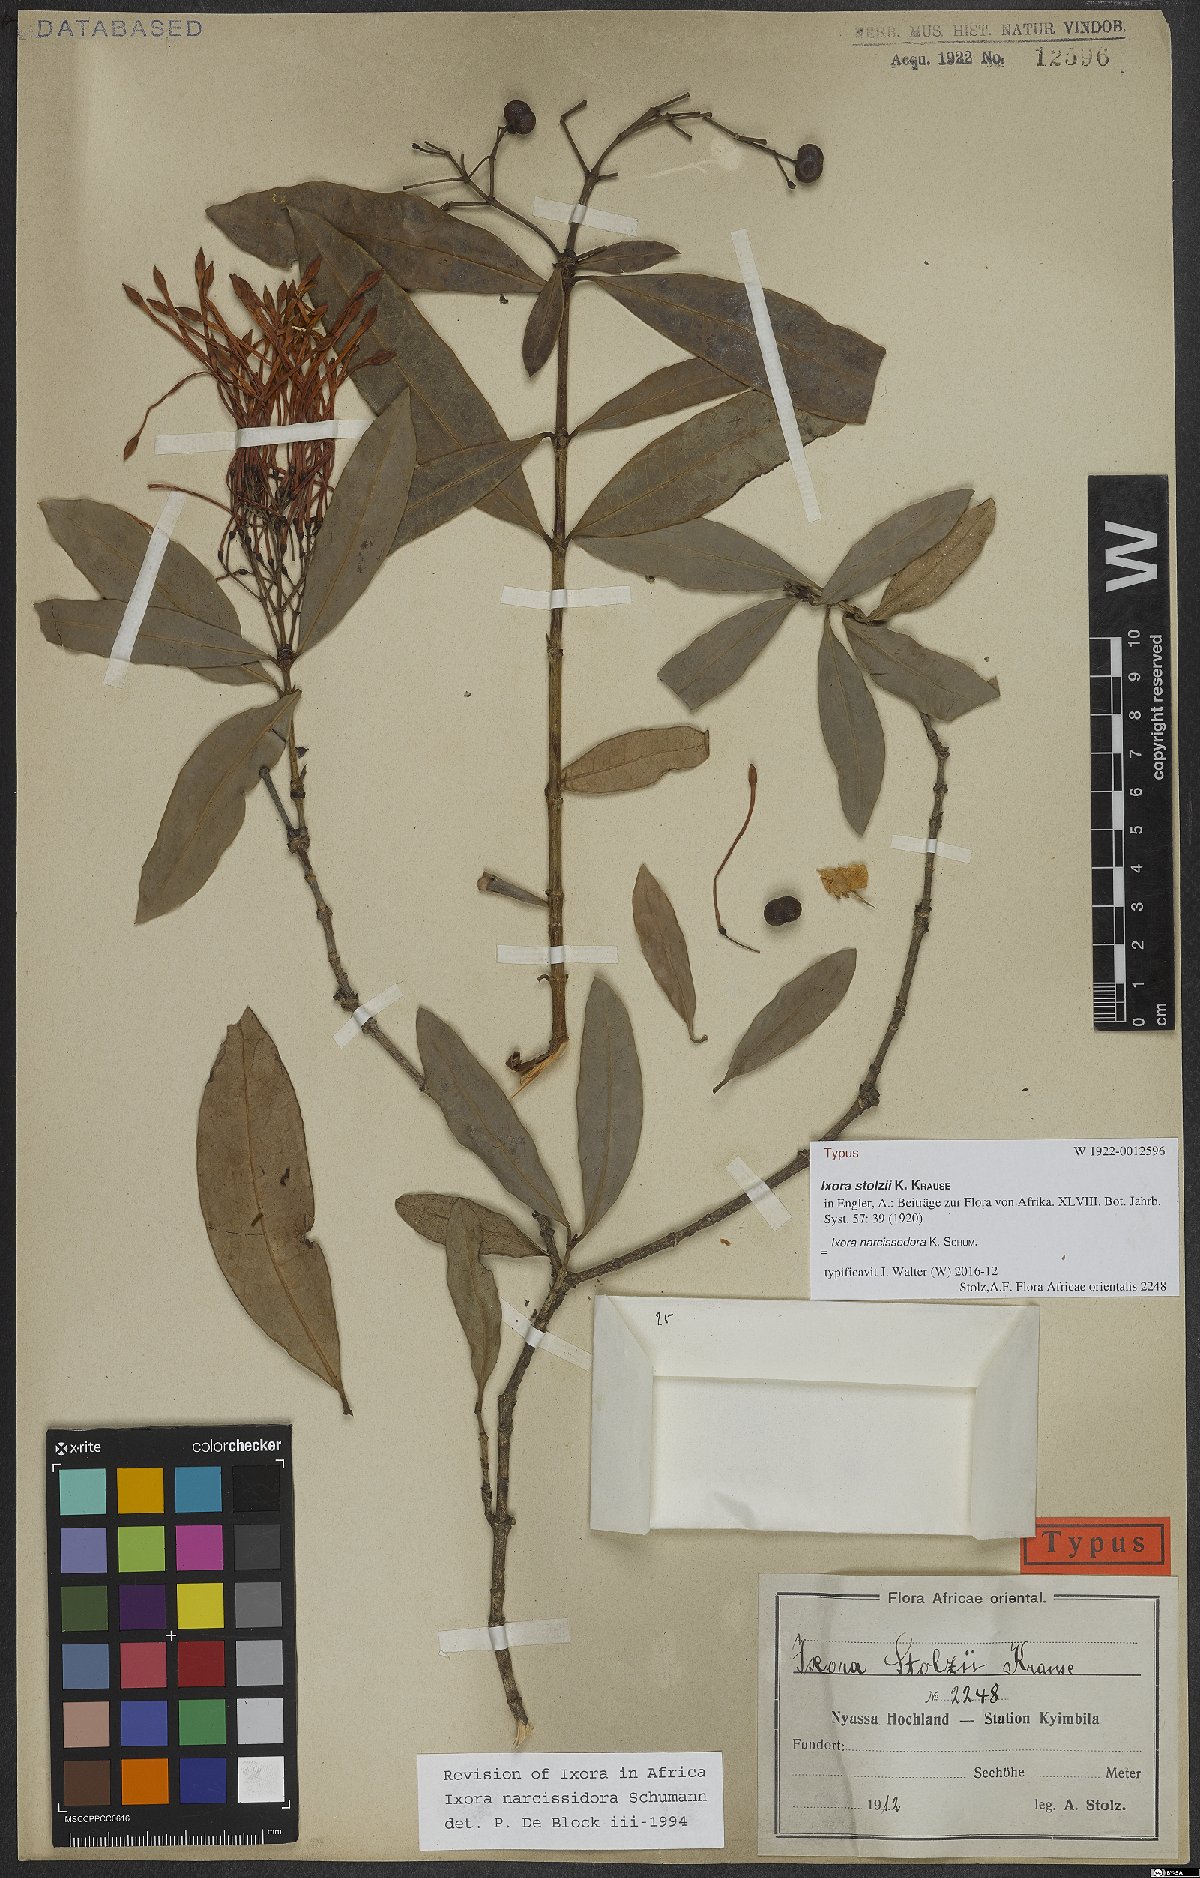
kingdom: Plantae
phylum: Tracheophyta
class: Magnoliopsida
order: Gentianales
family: Rubiaceae
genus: Ixora
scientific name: Ixora narcissodora
